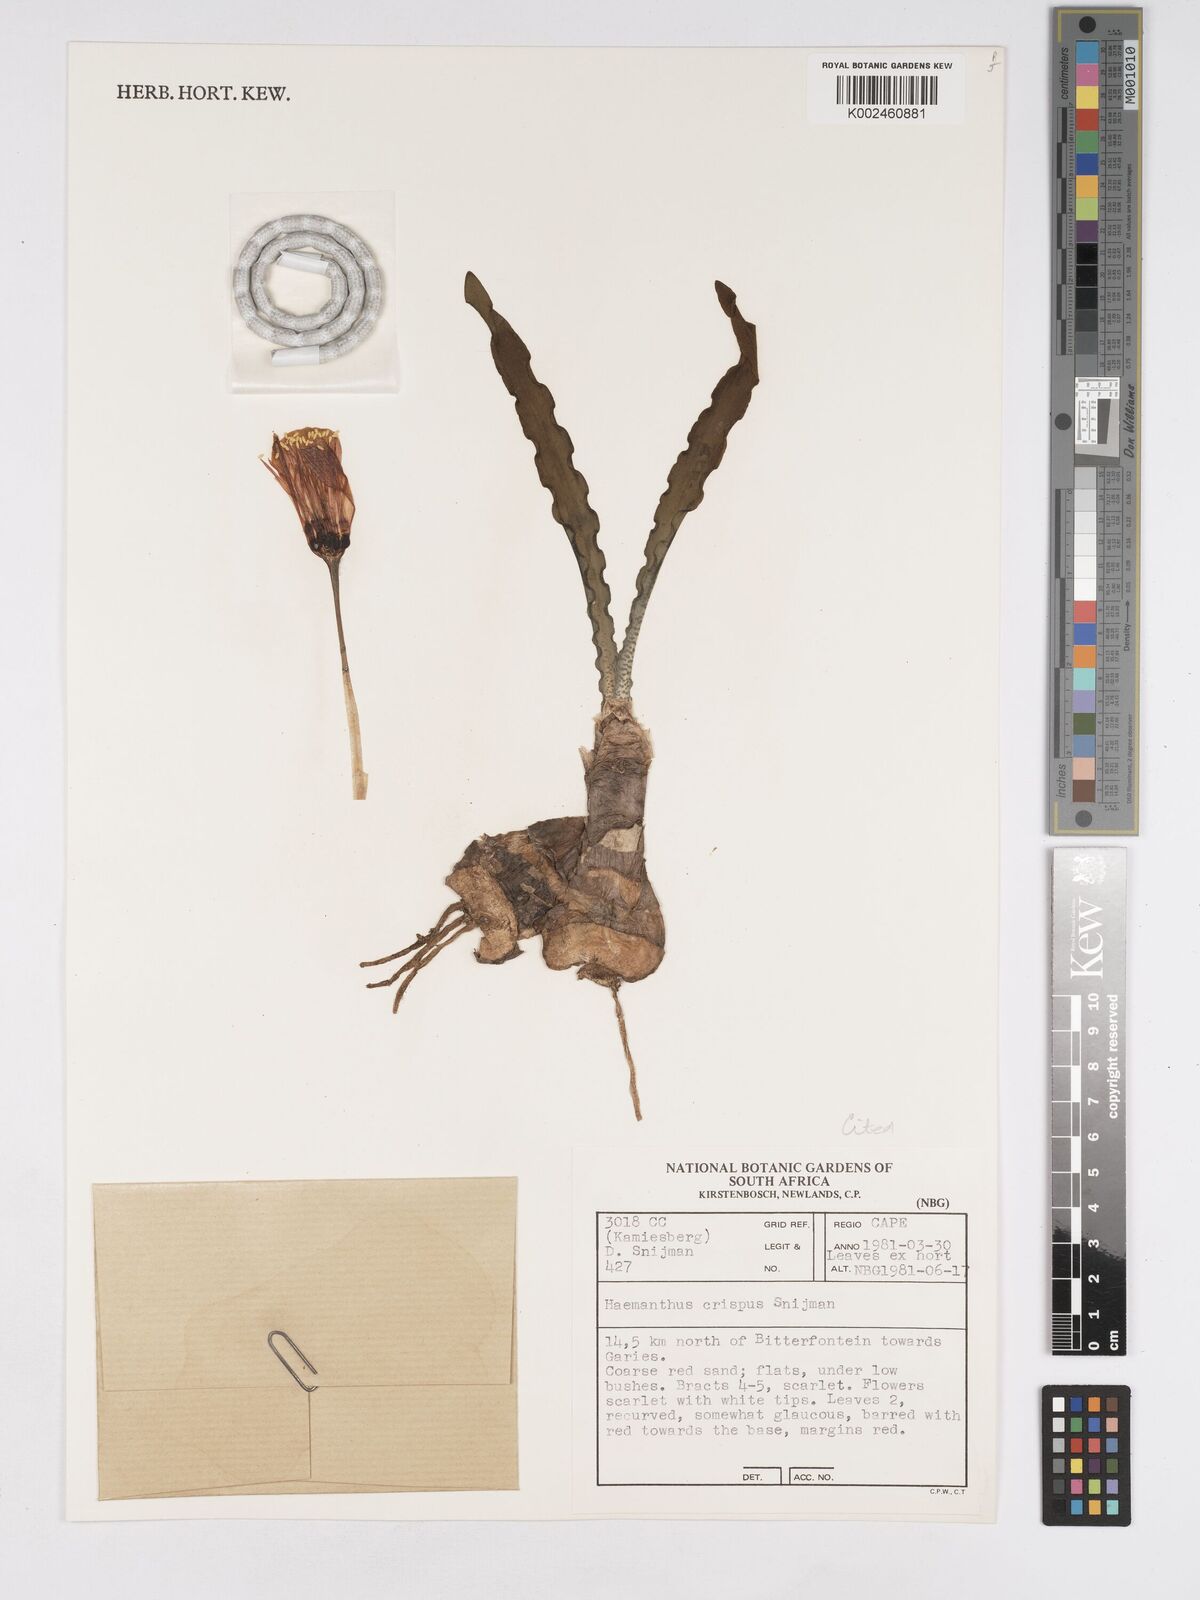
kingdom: Plantae
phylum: Tracheophyta
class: Liliopsida
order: Asparagales
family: Amaryllidaceae
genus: Haemanthus
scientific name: Haemanthus crispus
